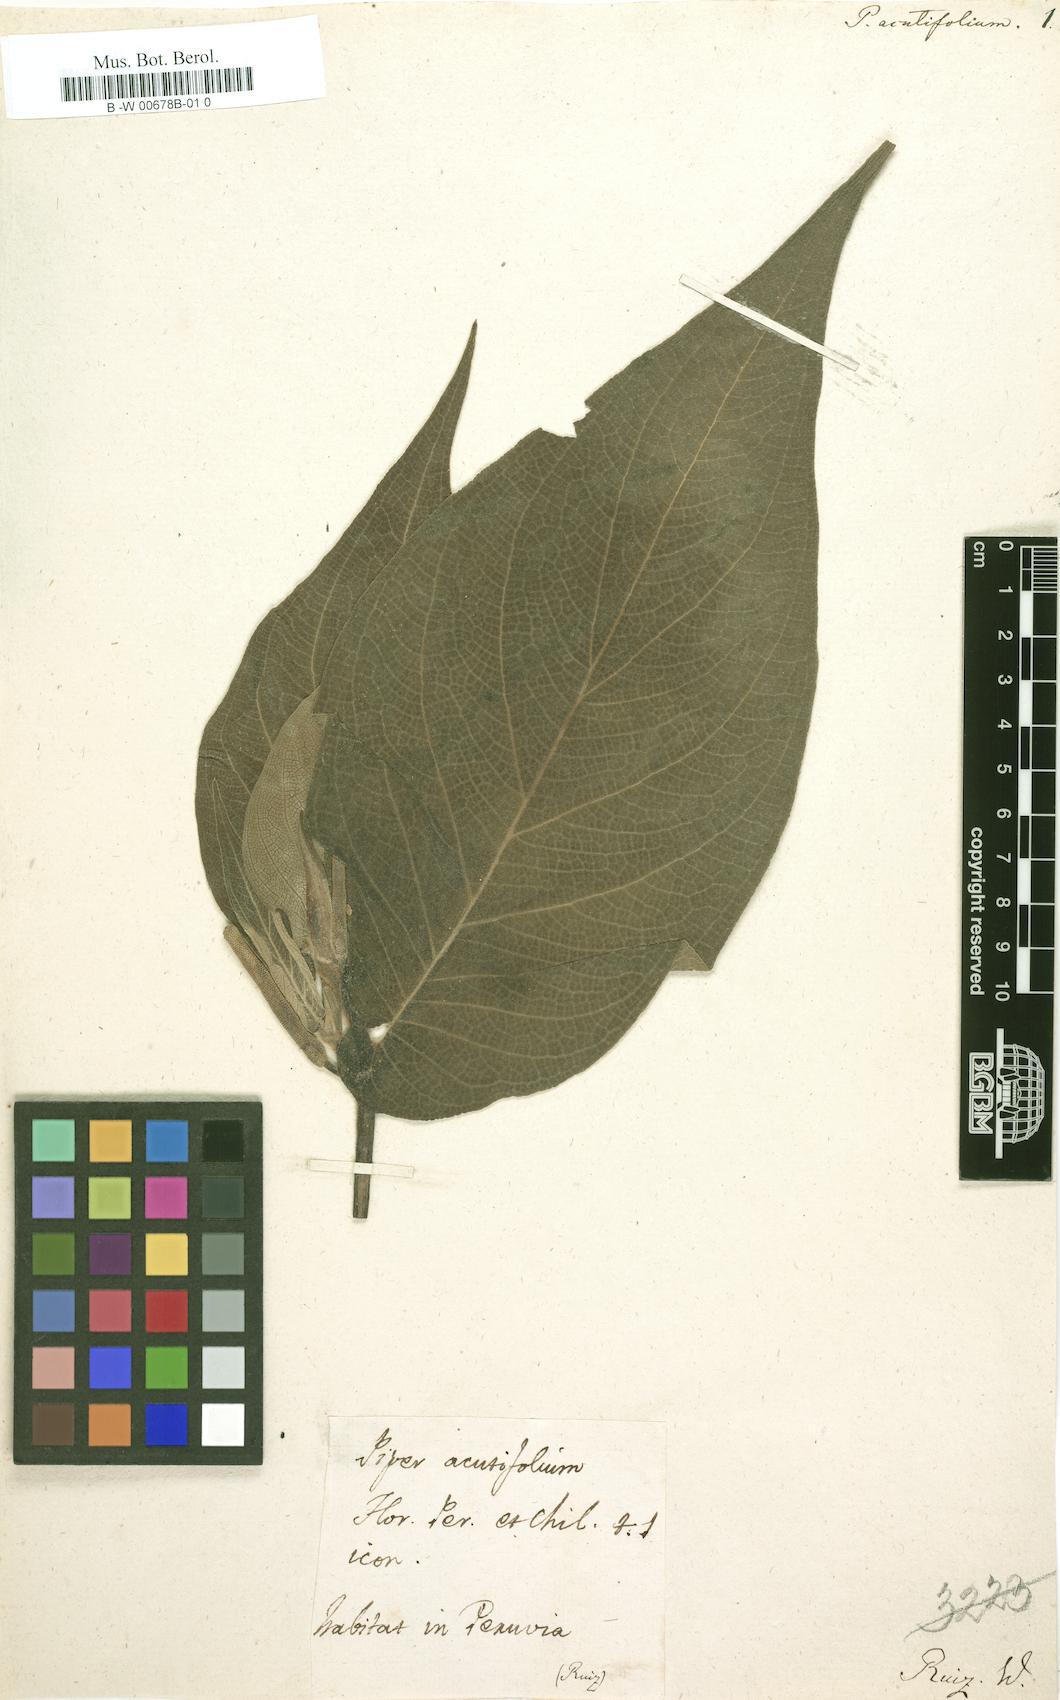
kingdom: Plantae
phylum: Tracheophyta
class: Magnoliopsida
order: Piperales
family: Piperaceae
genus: Piper
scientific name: Piper acutifolium
